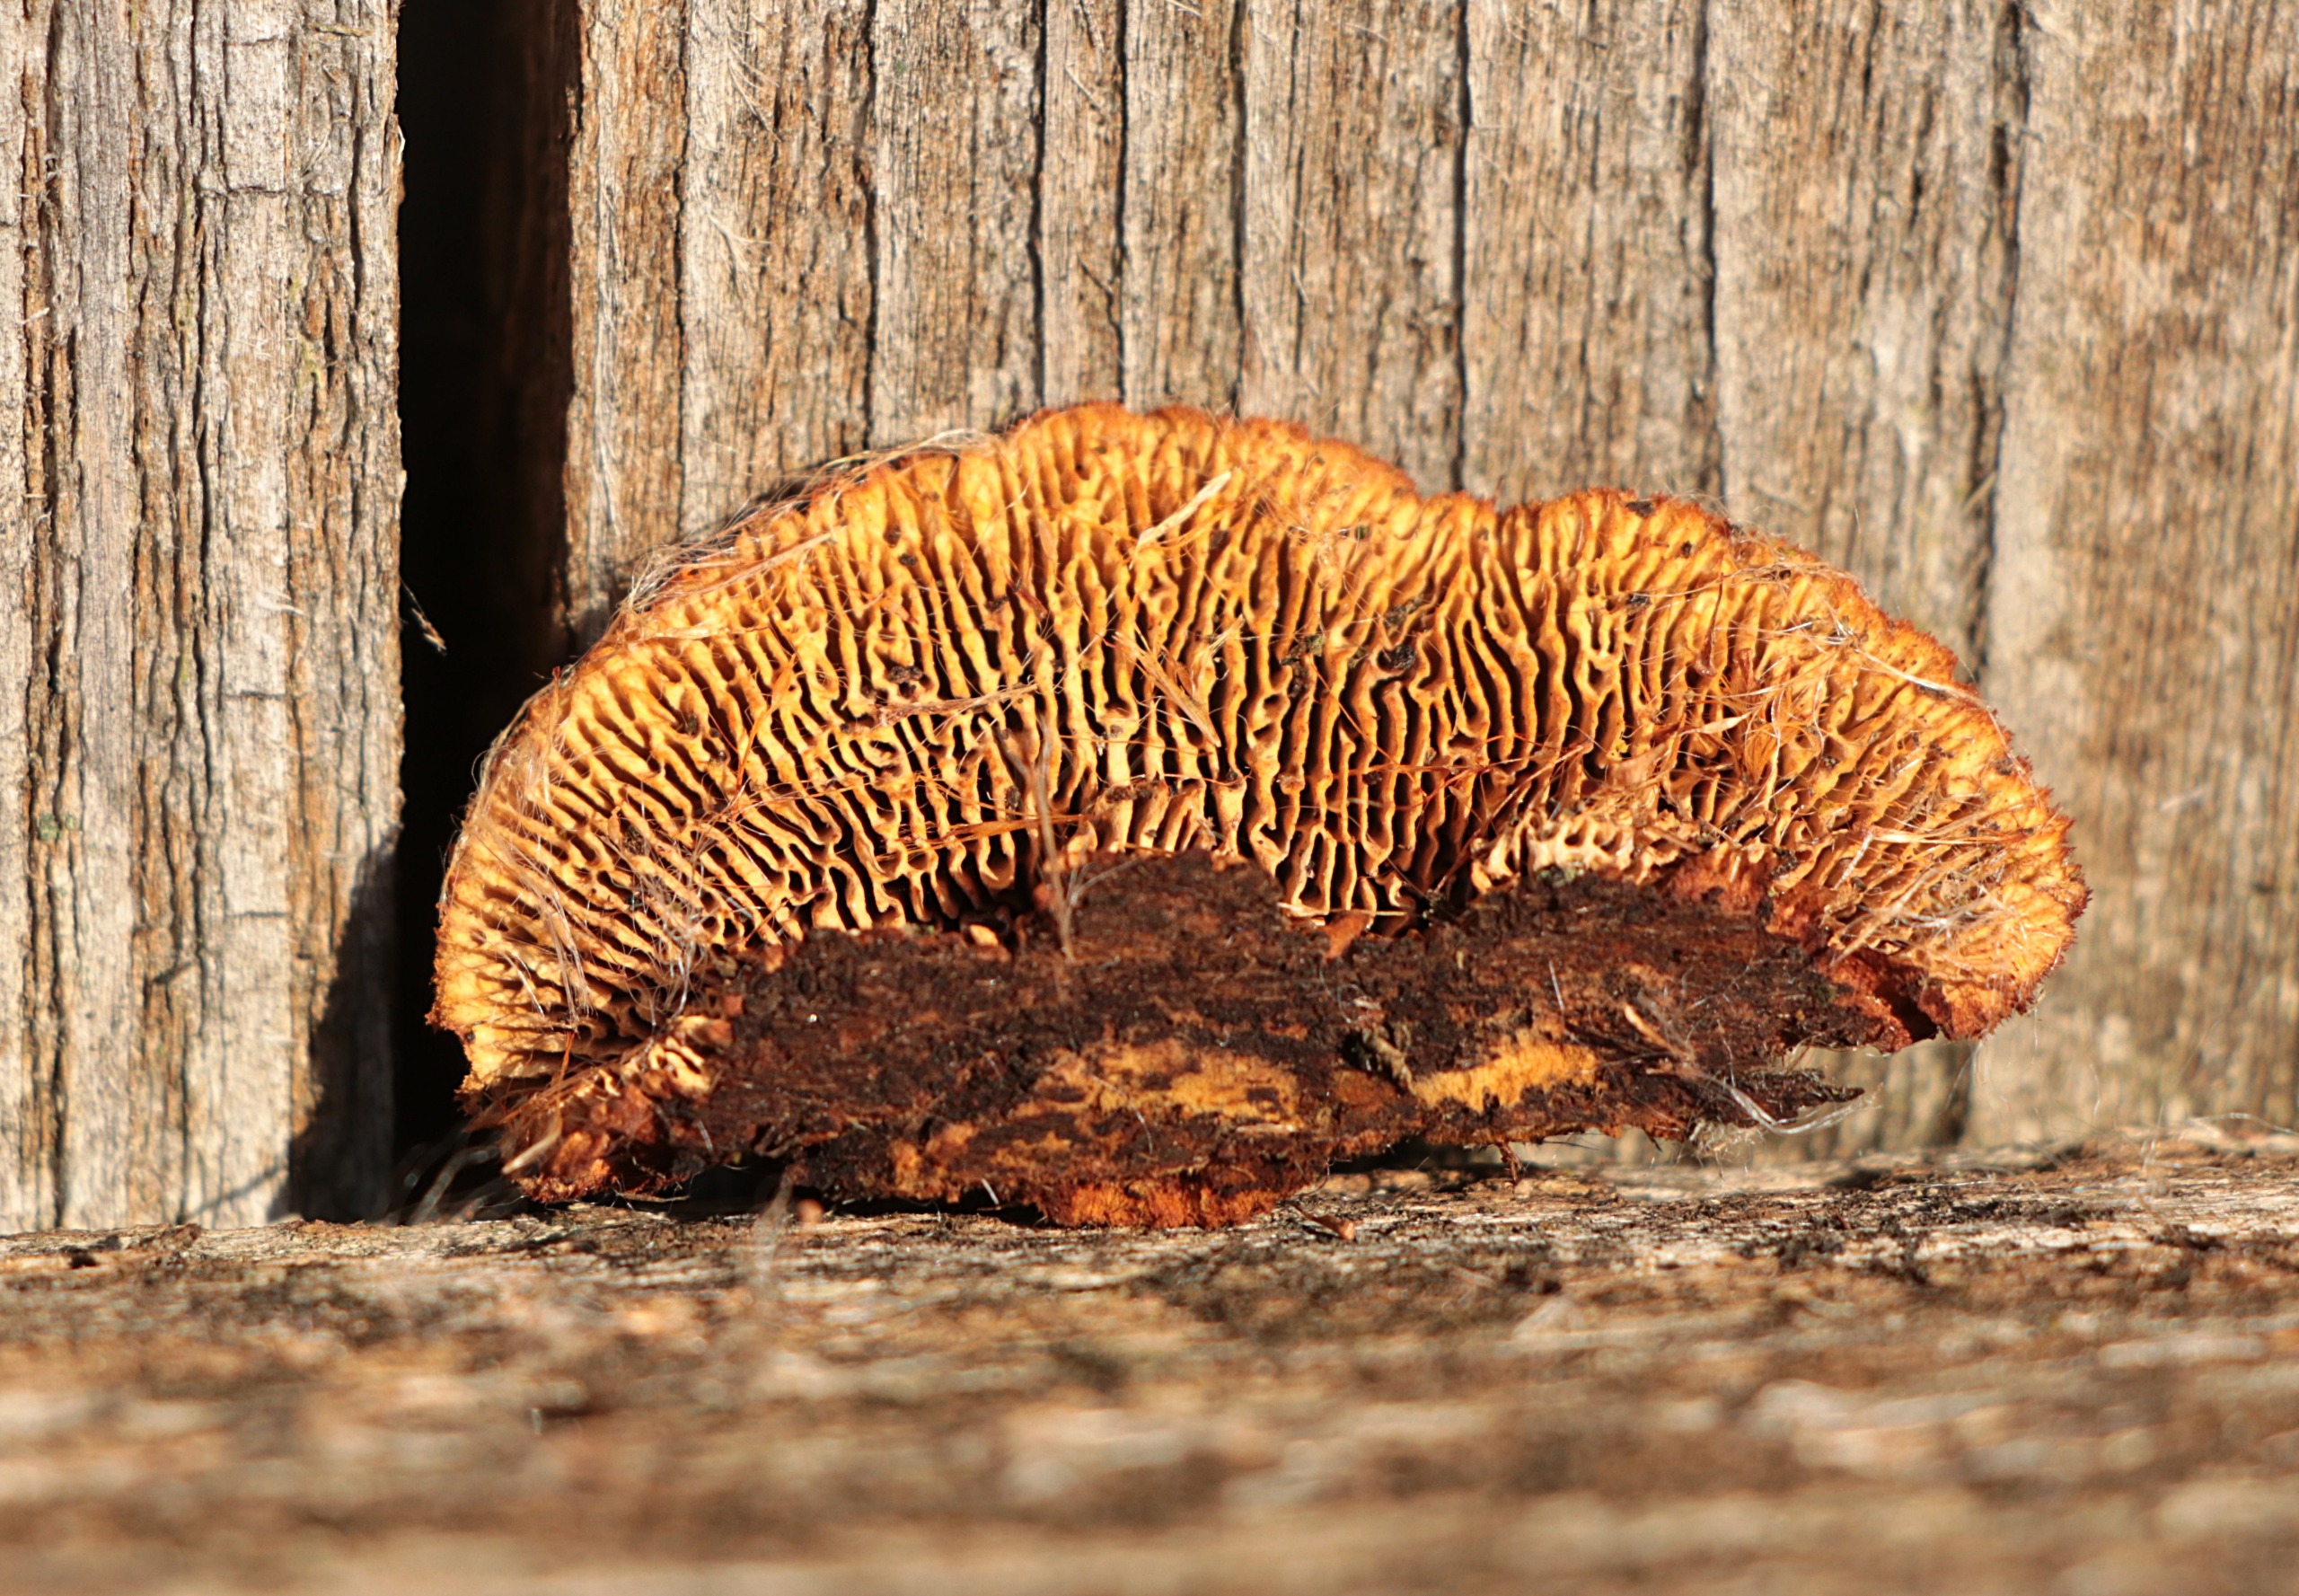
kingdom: Fungi
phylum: Basidiomycota
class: Agaricomycetes
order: Gloeophyllales
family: Gloeophyllaceae
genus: Gloeophyllum
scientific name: Gloeophyllum sepiarium
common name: Fyrre-korkhat
